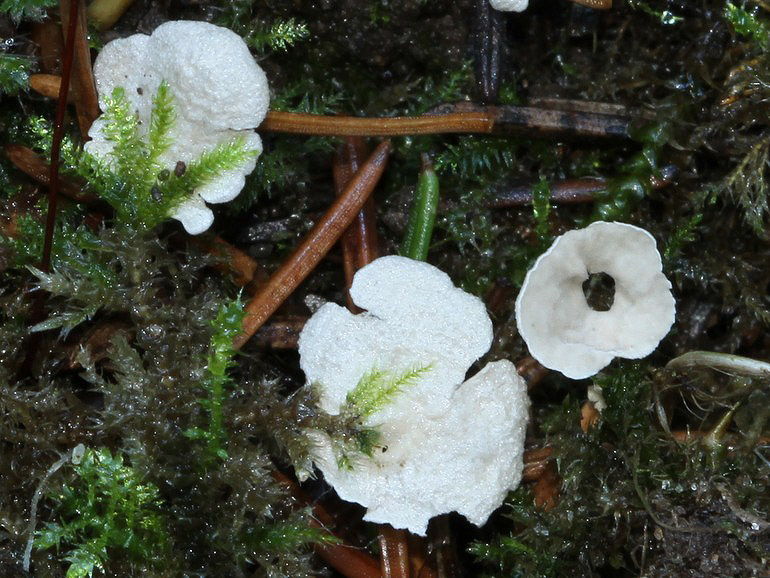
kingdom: Fungi
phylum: Basidiomycota
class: Agaricomycetes
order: Agaricales
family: Hygrophoraceae
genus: Arrhenia
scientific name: Arrhenia retiruga
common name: lille fontænehat
